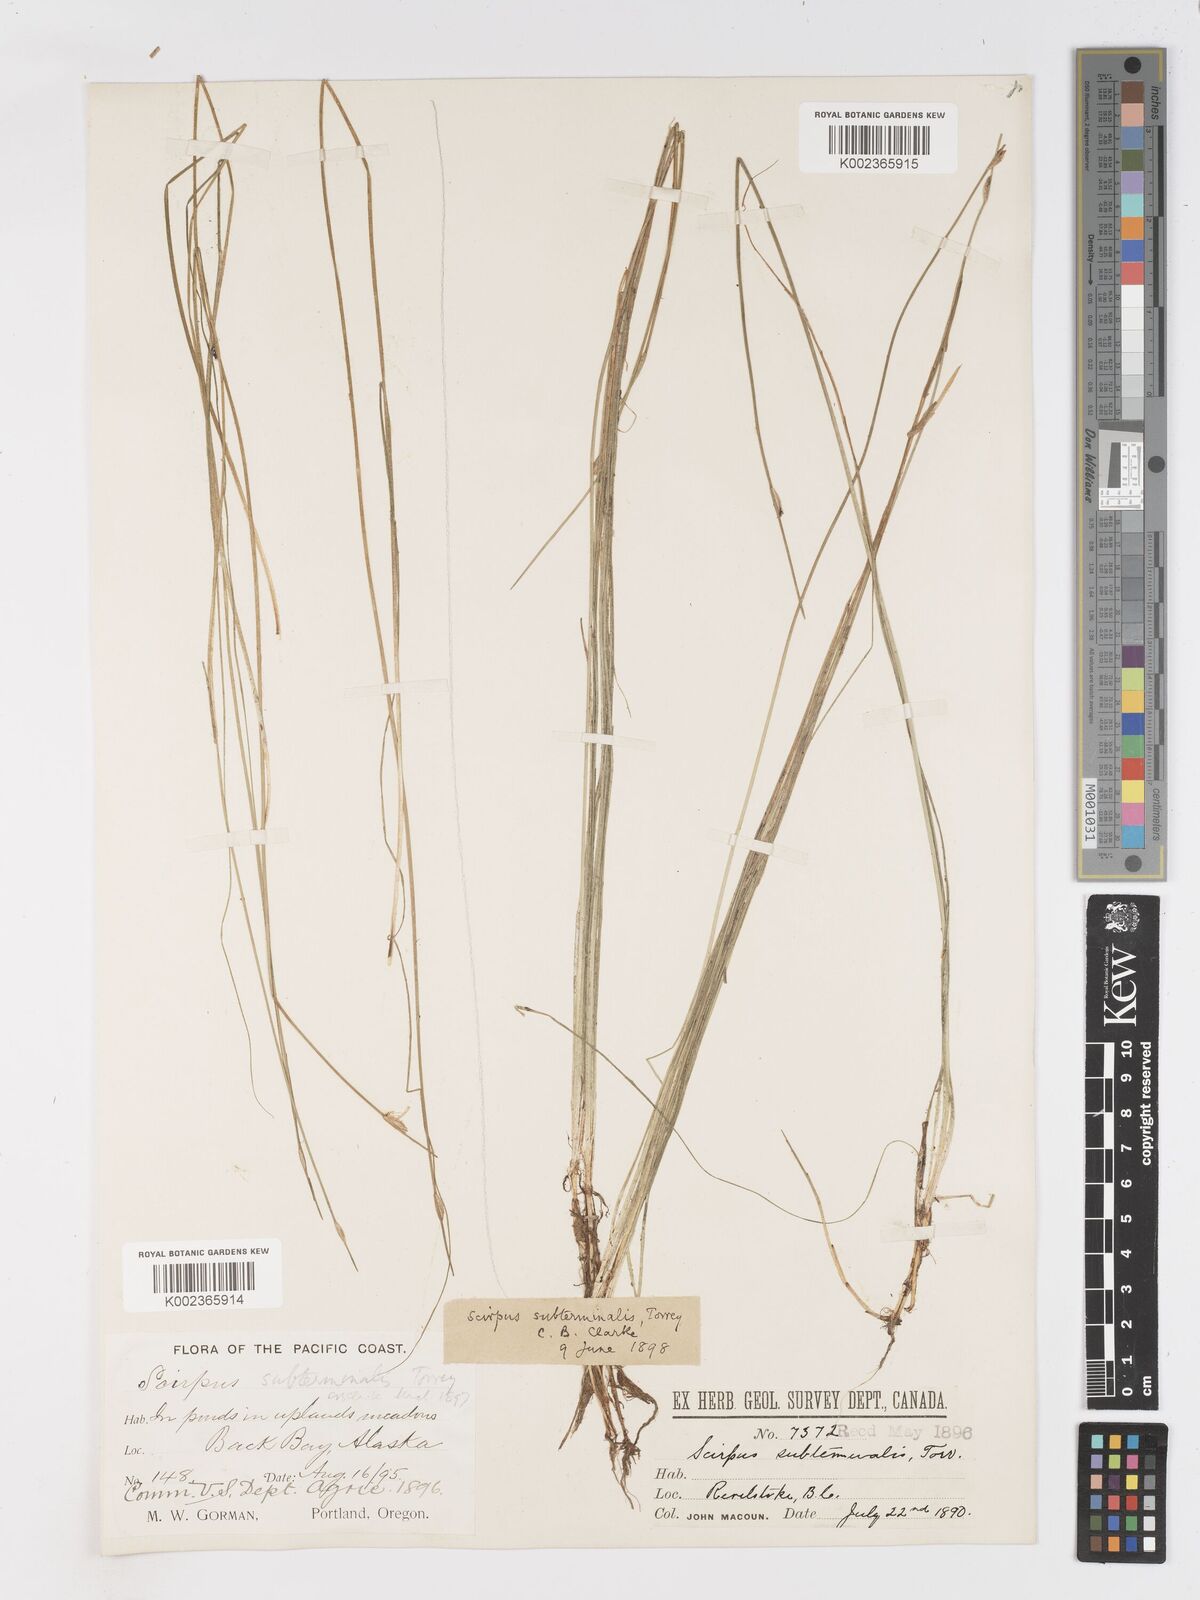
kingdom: Plantae
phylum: Tracheophyta
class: Liliopsida
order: Poales
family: Cyperaceae
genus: Schoenoplectus
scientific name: Schoenoplectus subterminalis
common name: Swaying bulrush
